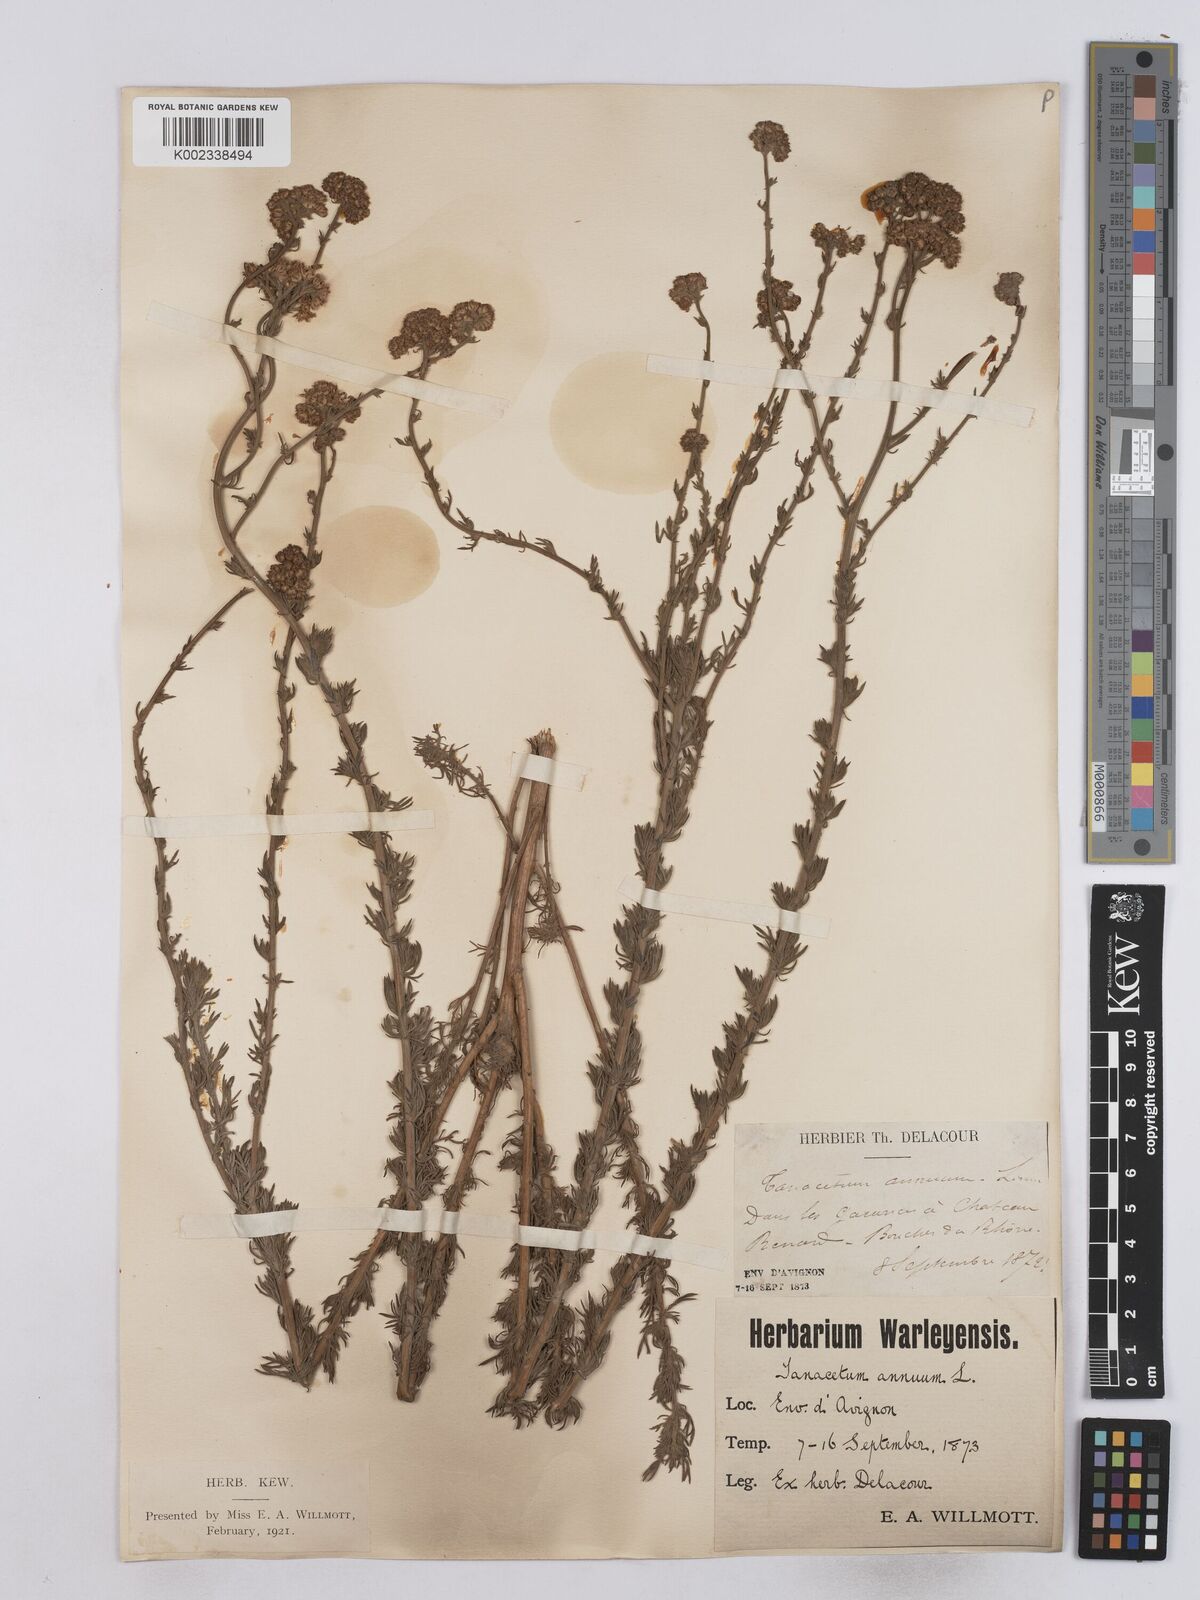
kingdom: Plantae
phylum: Tracheophyta
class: Magnoliopsida
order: Asterales
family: Asteraceae
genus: Vogtia
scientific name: Vogtia annua
